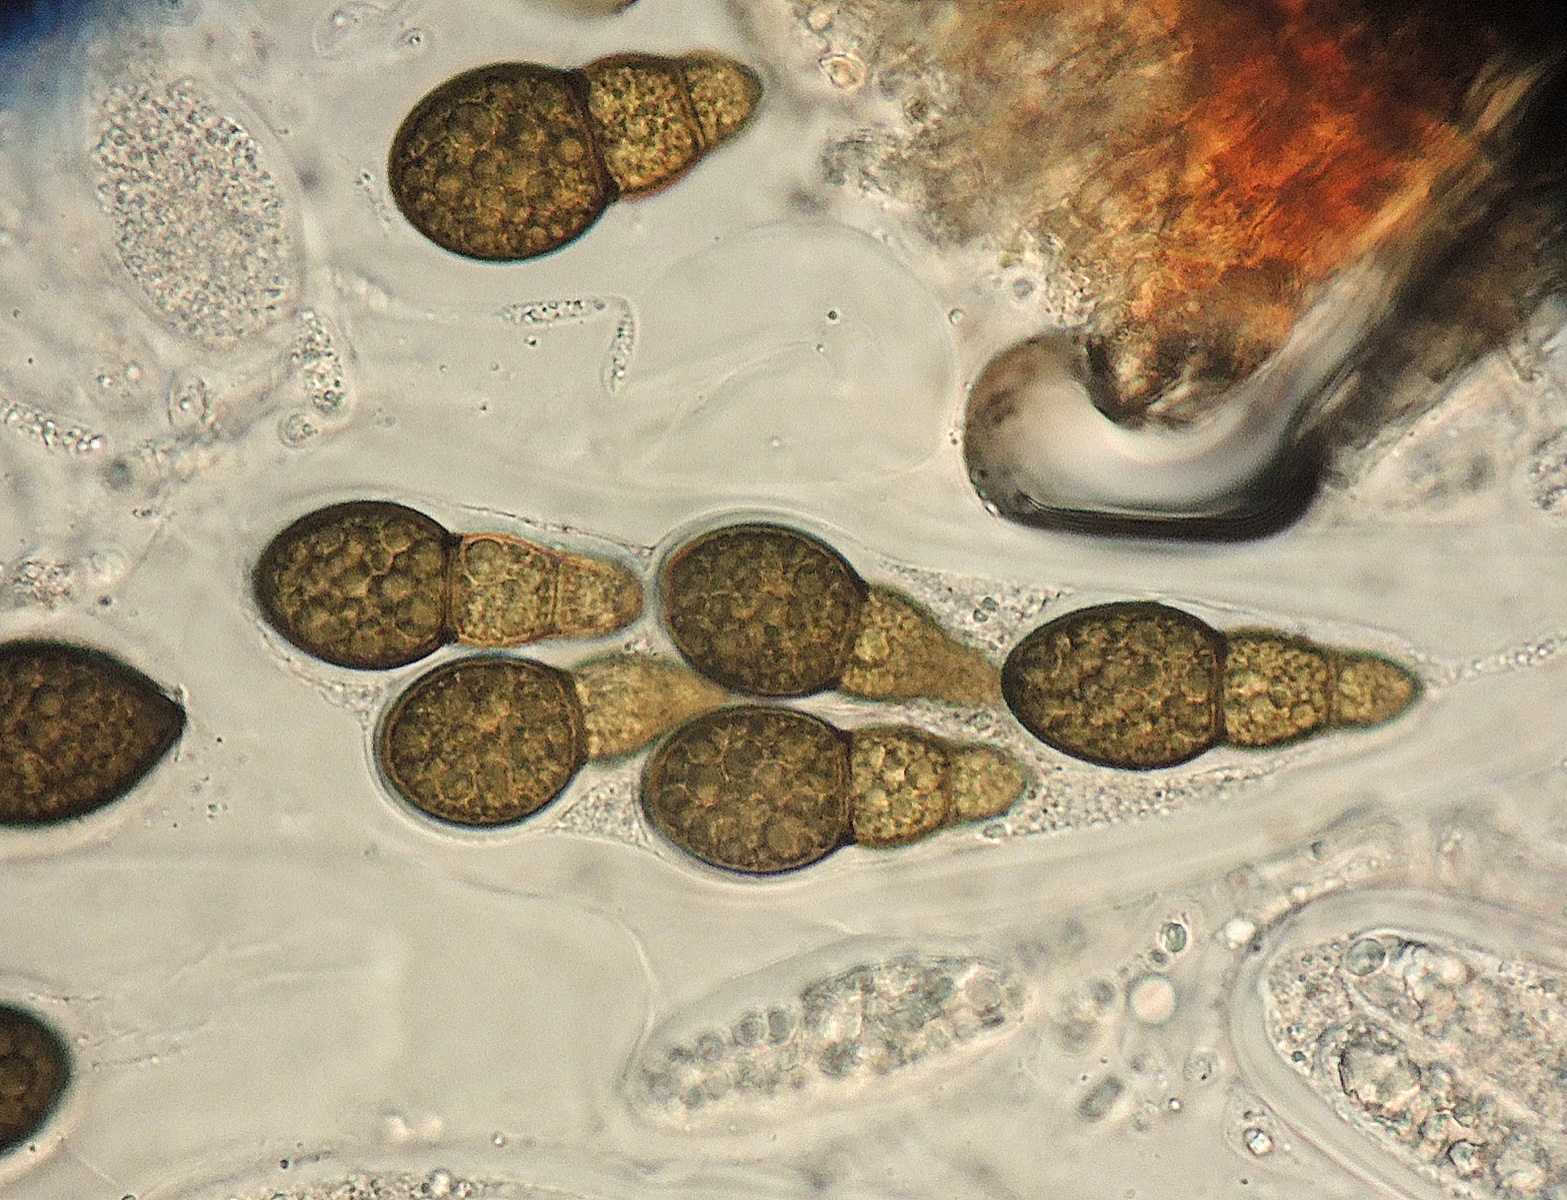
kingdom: Fungi
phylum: Ascomycota
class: Dothideomycetes
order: Pleosporales
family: Pleomassariaceae
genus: Splanchnonema
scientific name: Splanchnonema foedans
